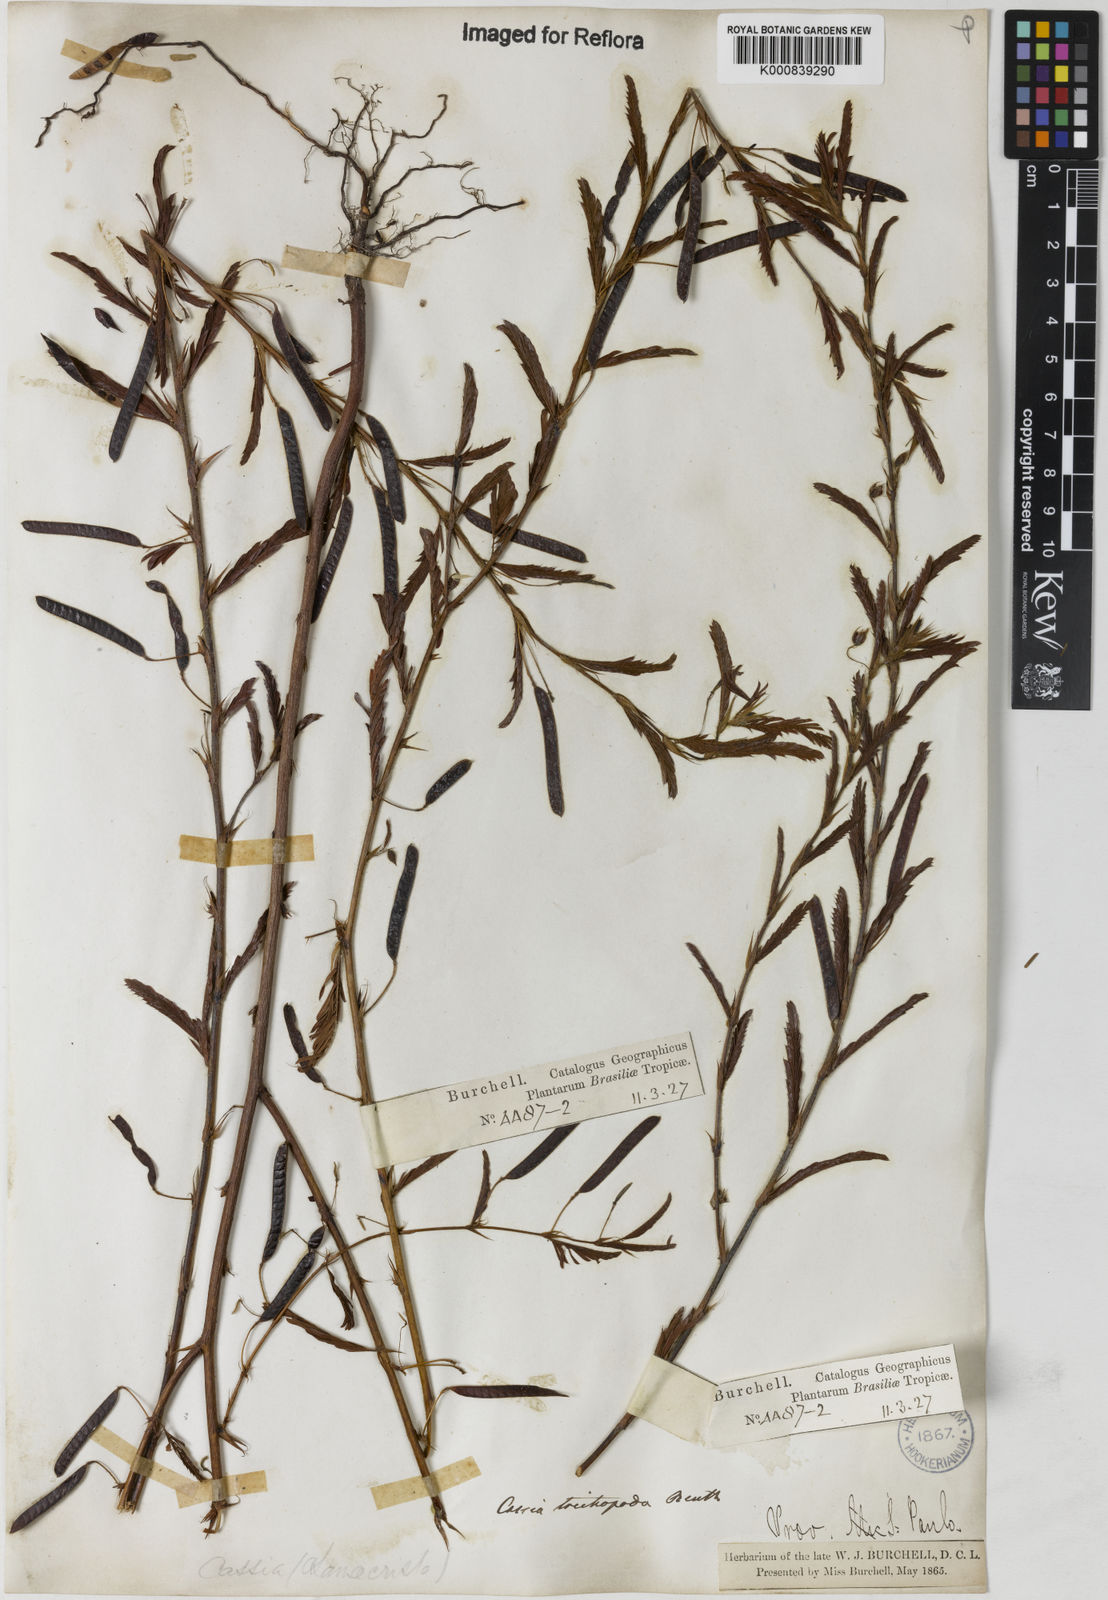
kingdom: Plantae
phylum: Tracheophyta
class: Magnoliopsida
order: Fabales
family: Fabaceae
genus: Chamaecrista
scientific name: Chamaecrista trichopoda
